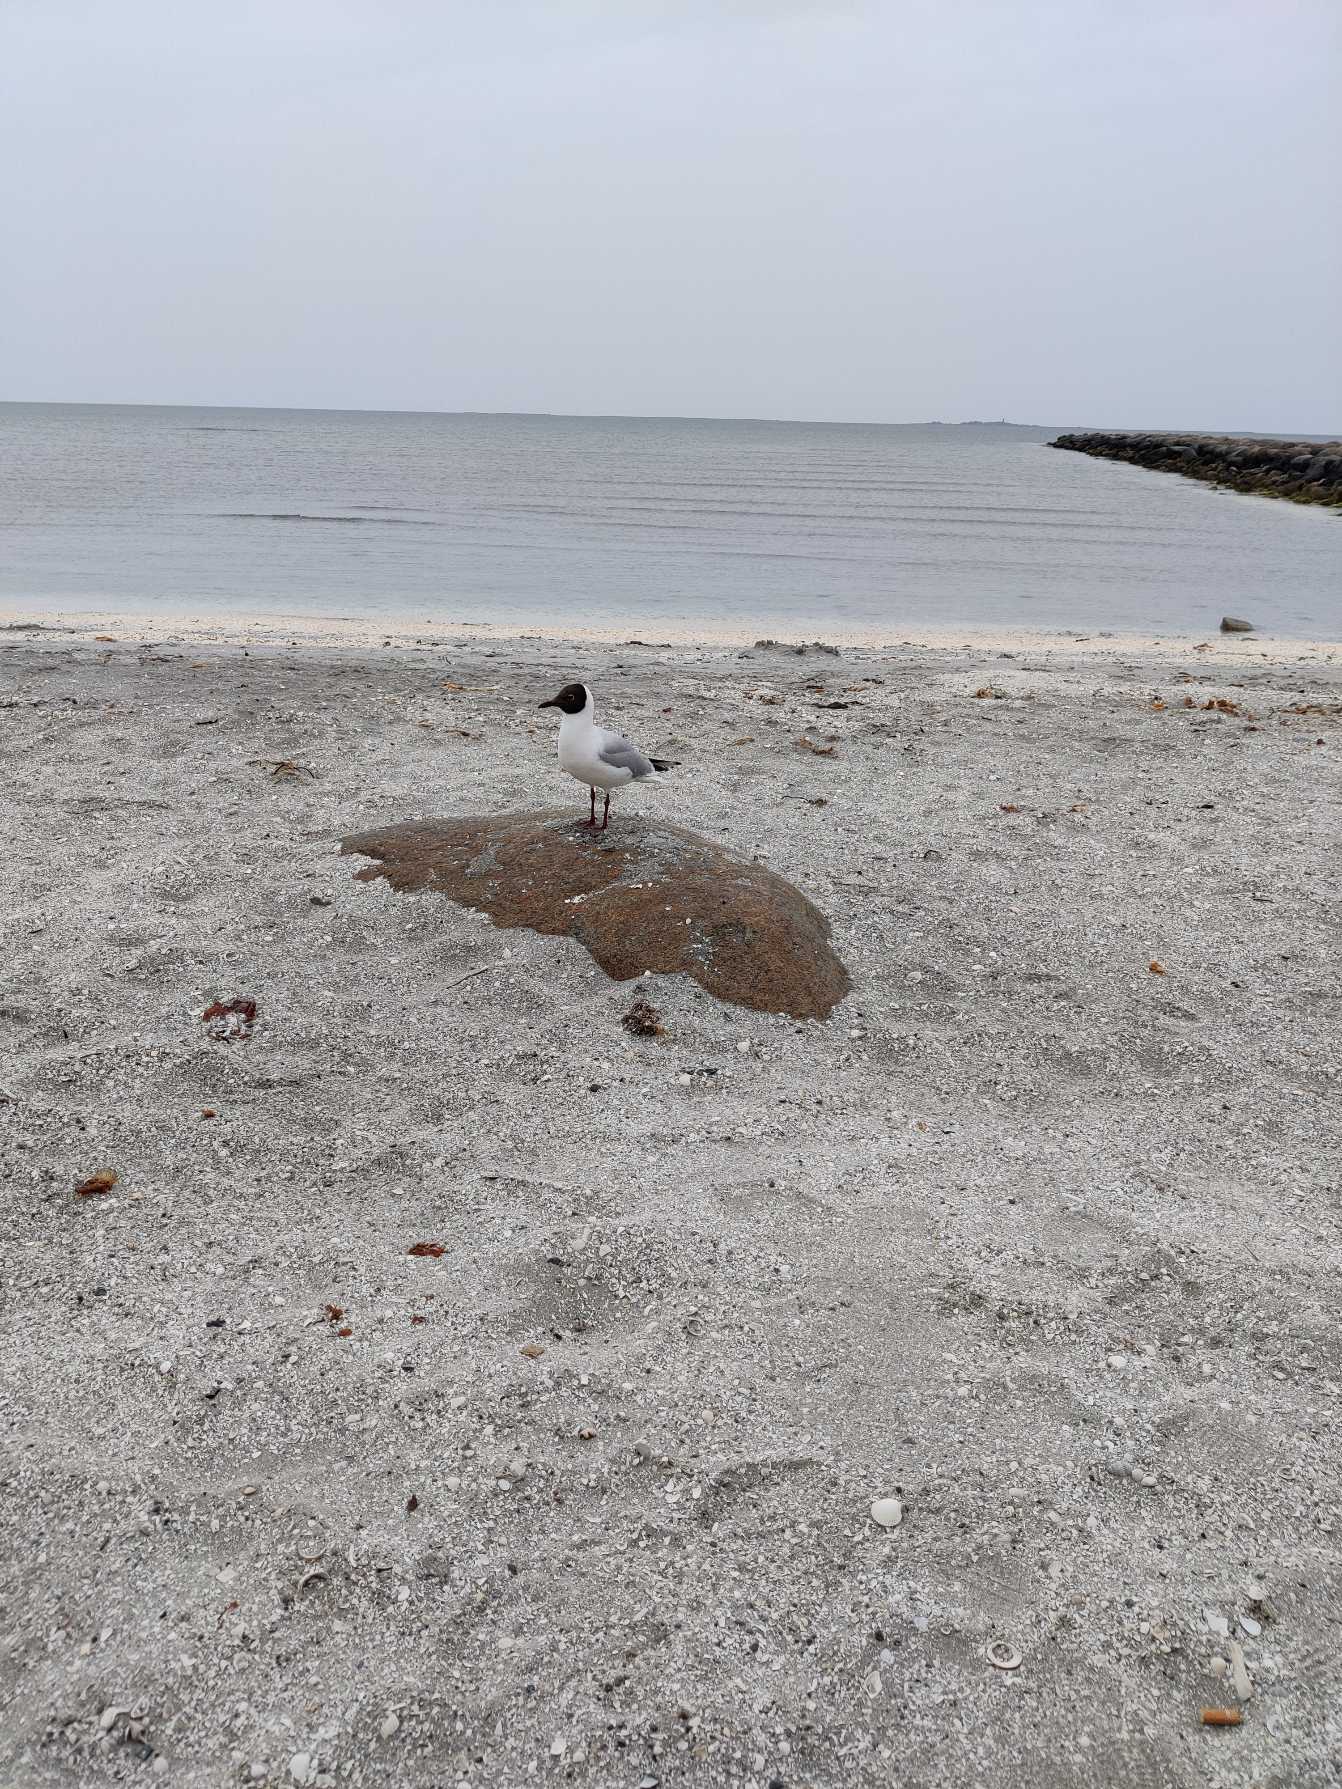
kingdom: Animalia
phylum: Chordata
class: Aves
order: Charadriiformes
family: Laridae
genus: Chroicocephalus
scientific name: Chroicocephalus ridibundus
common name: Hættemåge
